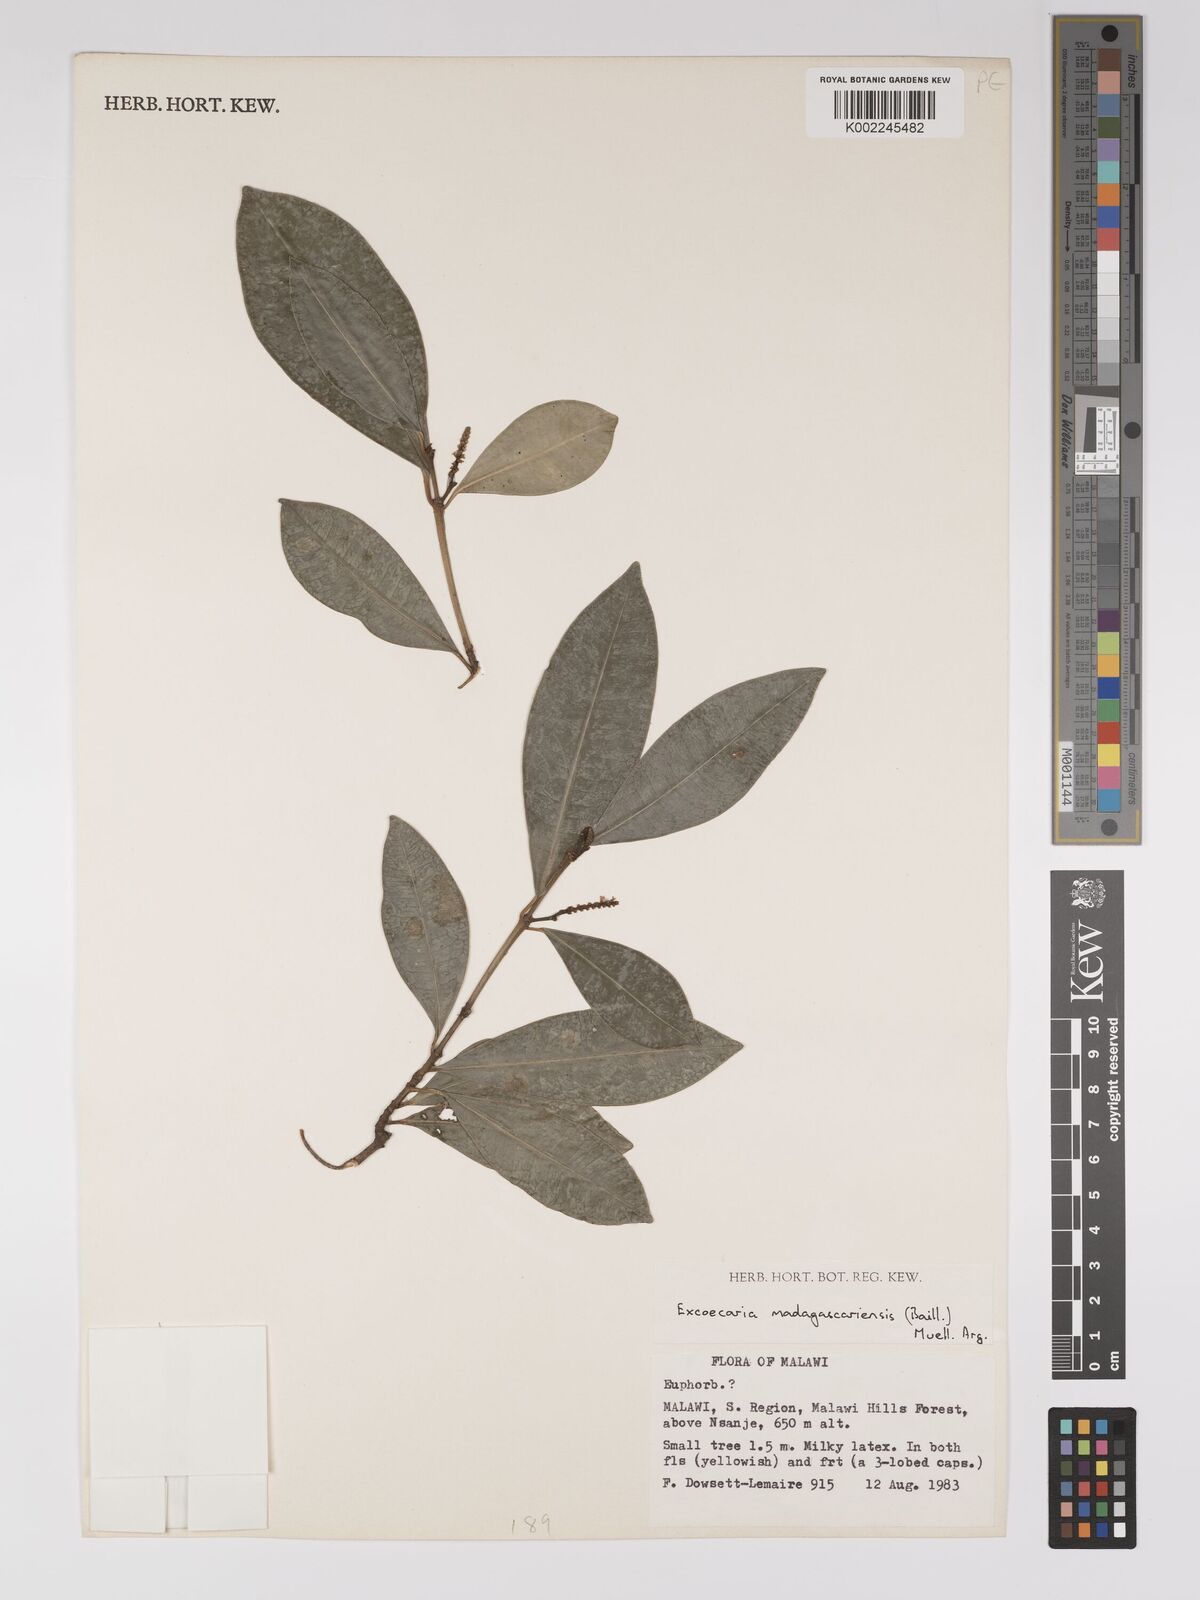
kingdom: Plantae
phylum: Tracheophyta
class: Magnoliopsida
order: Malpighiales
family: Euphorbiaceae
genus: Excoecaria
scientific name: Excoecaria madagascariensis
